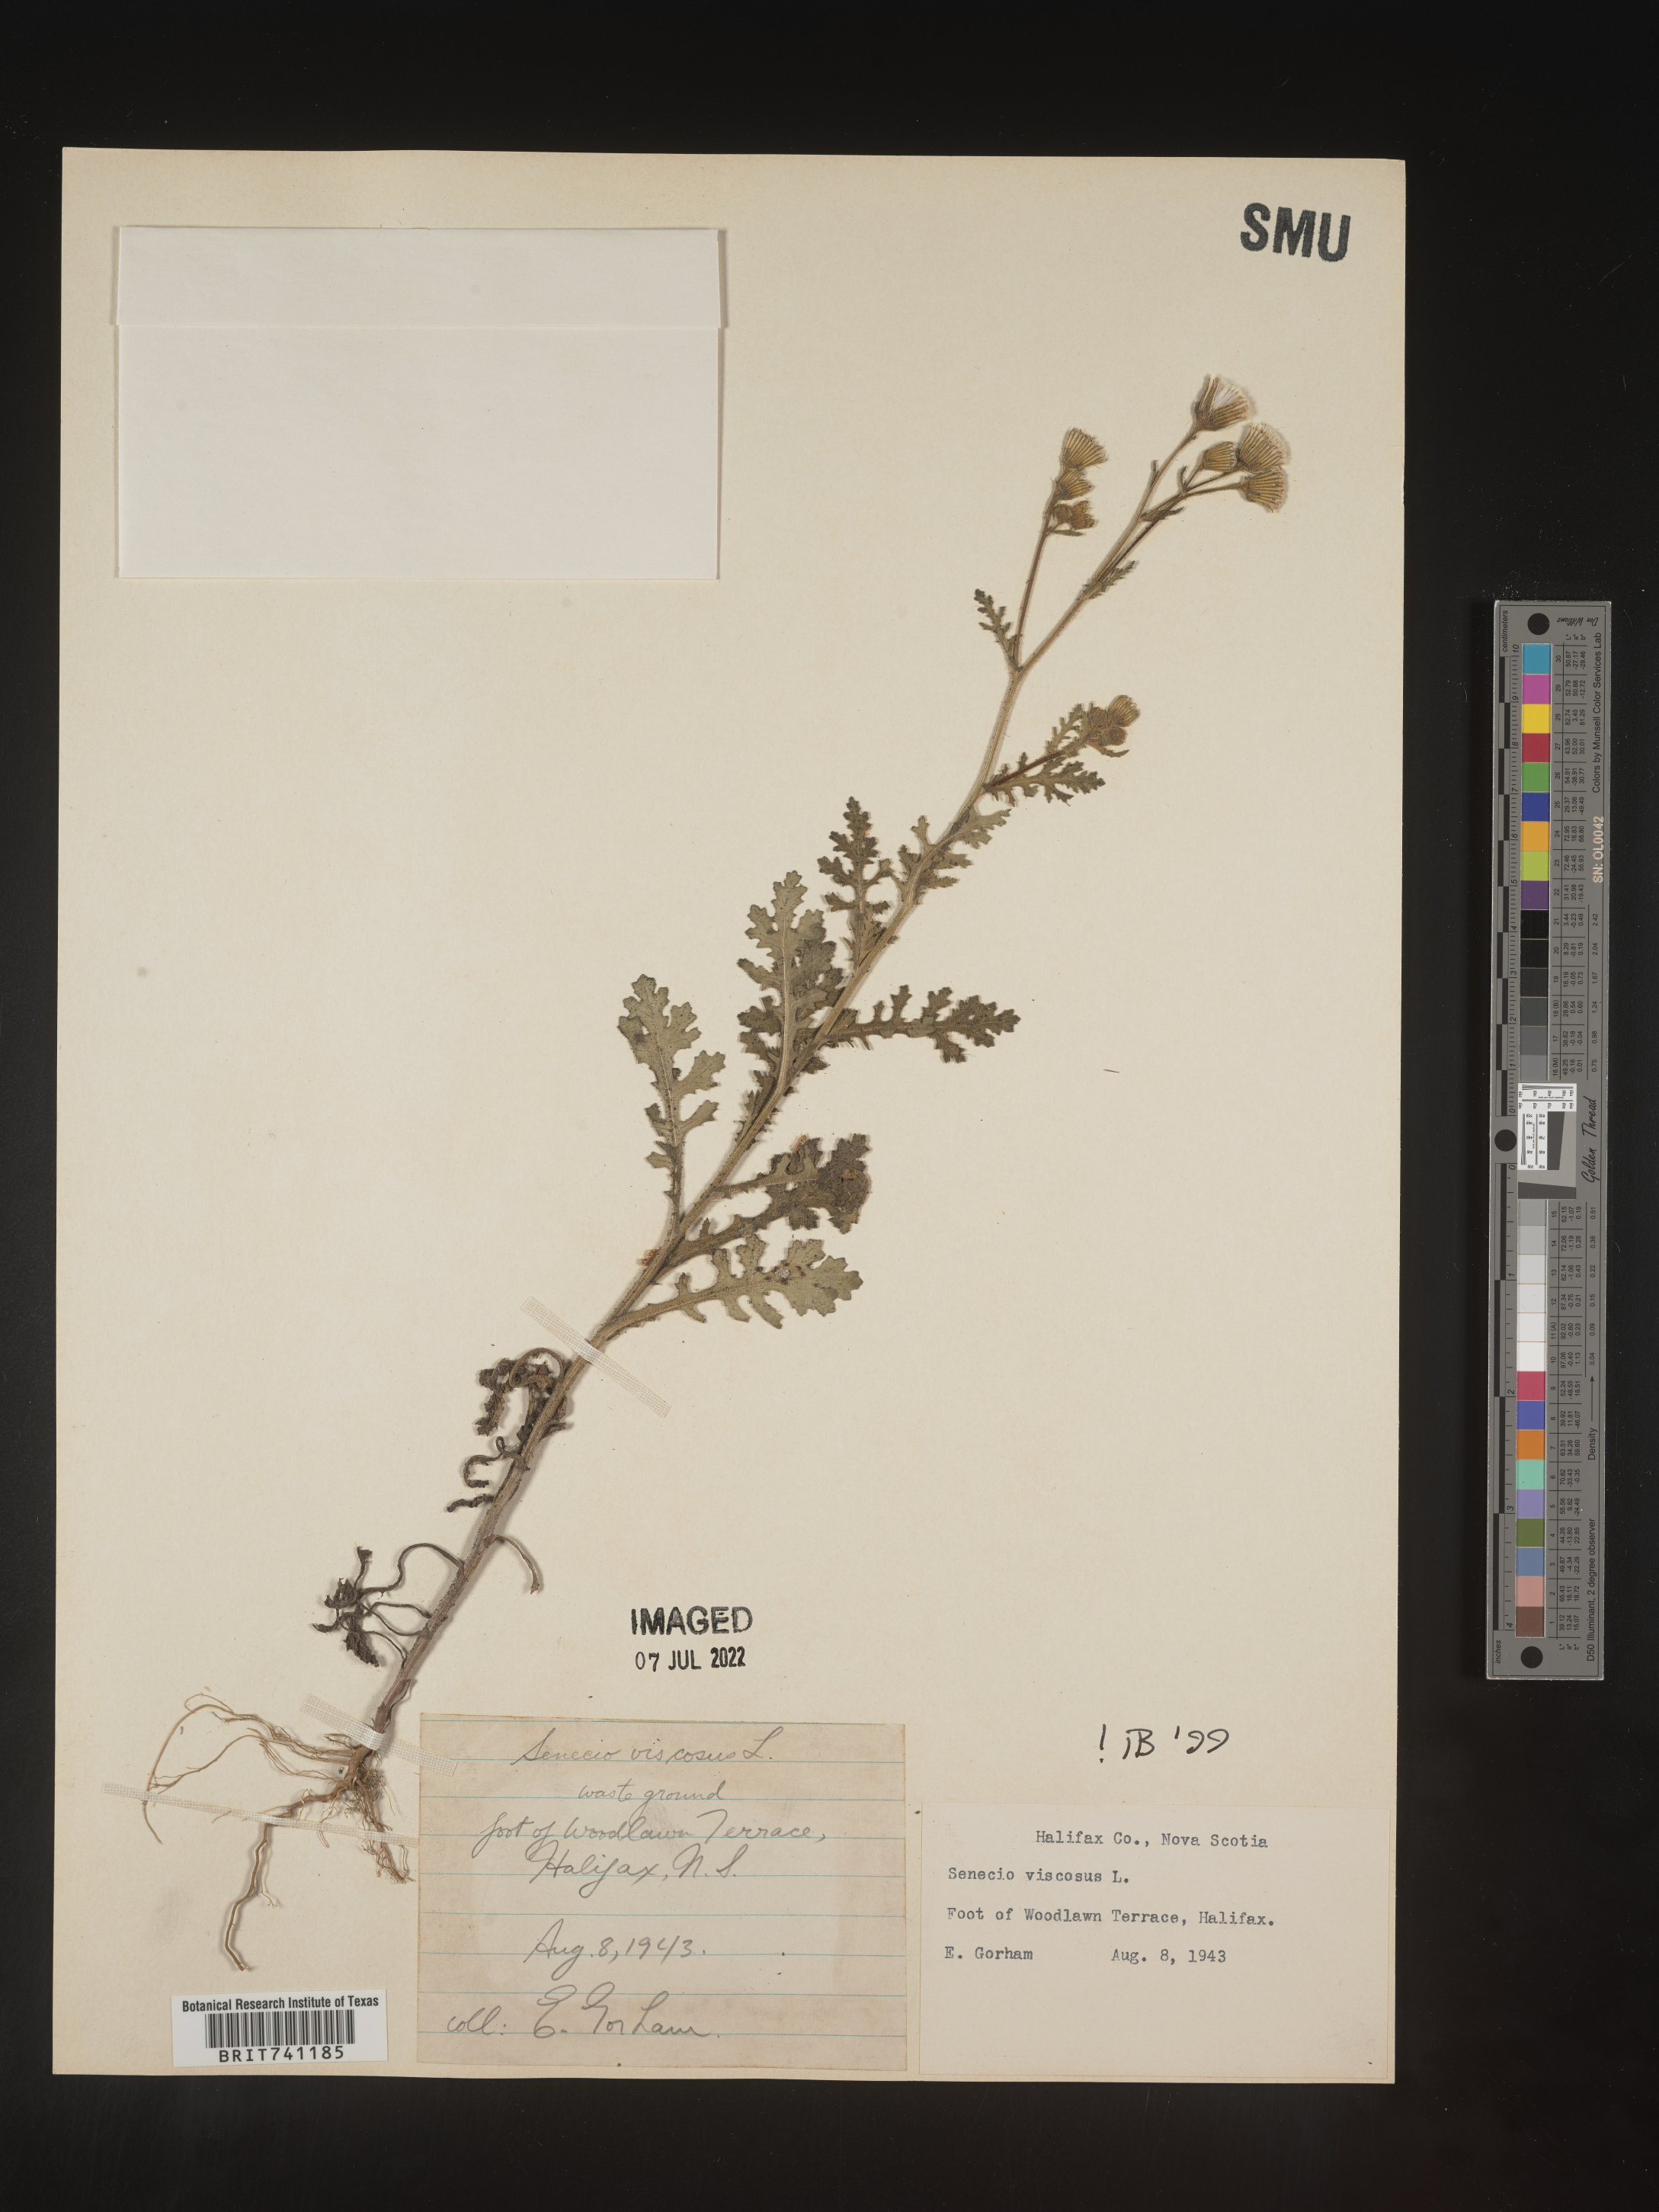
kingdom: Plantae
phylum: Tracheophyta
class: Magnoliopsida
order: Asterales
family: Asteraceae
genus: Senecio
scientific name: Senecio viscosus
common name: Sticky groundsel
